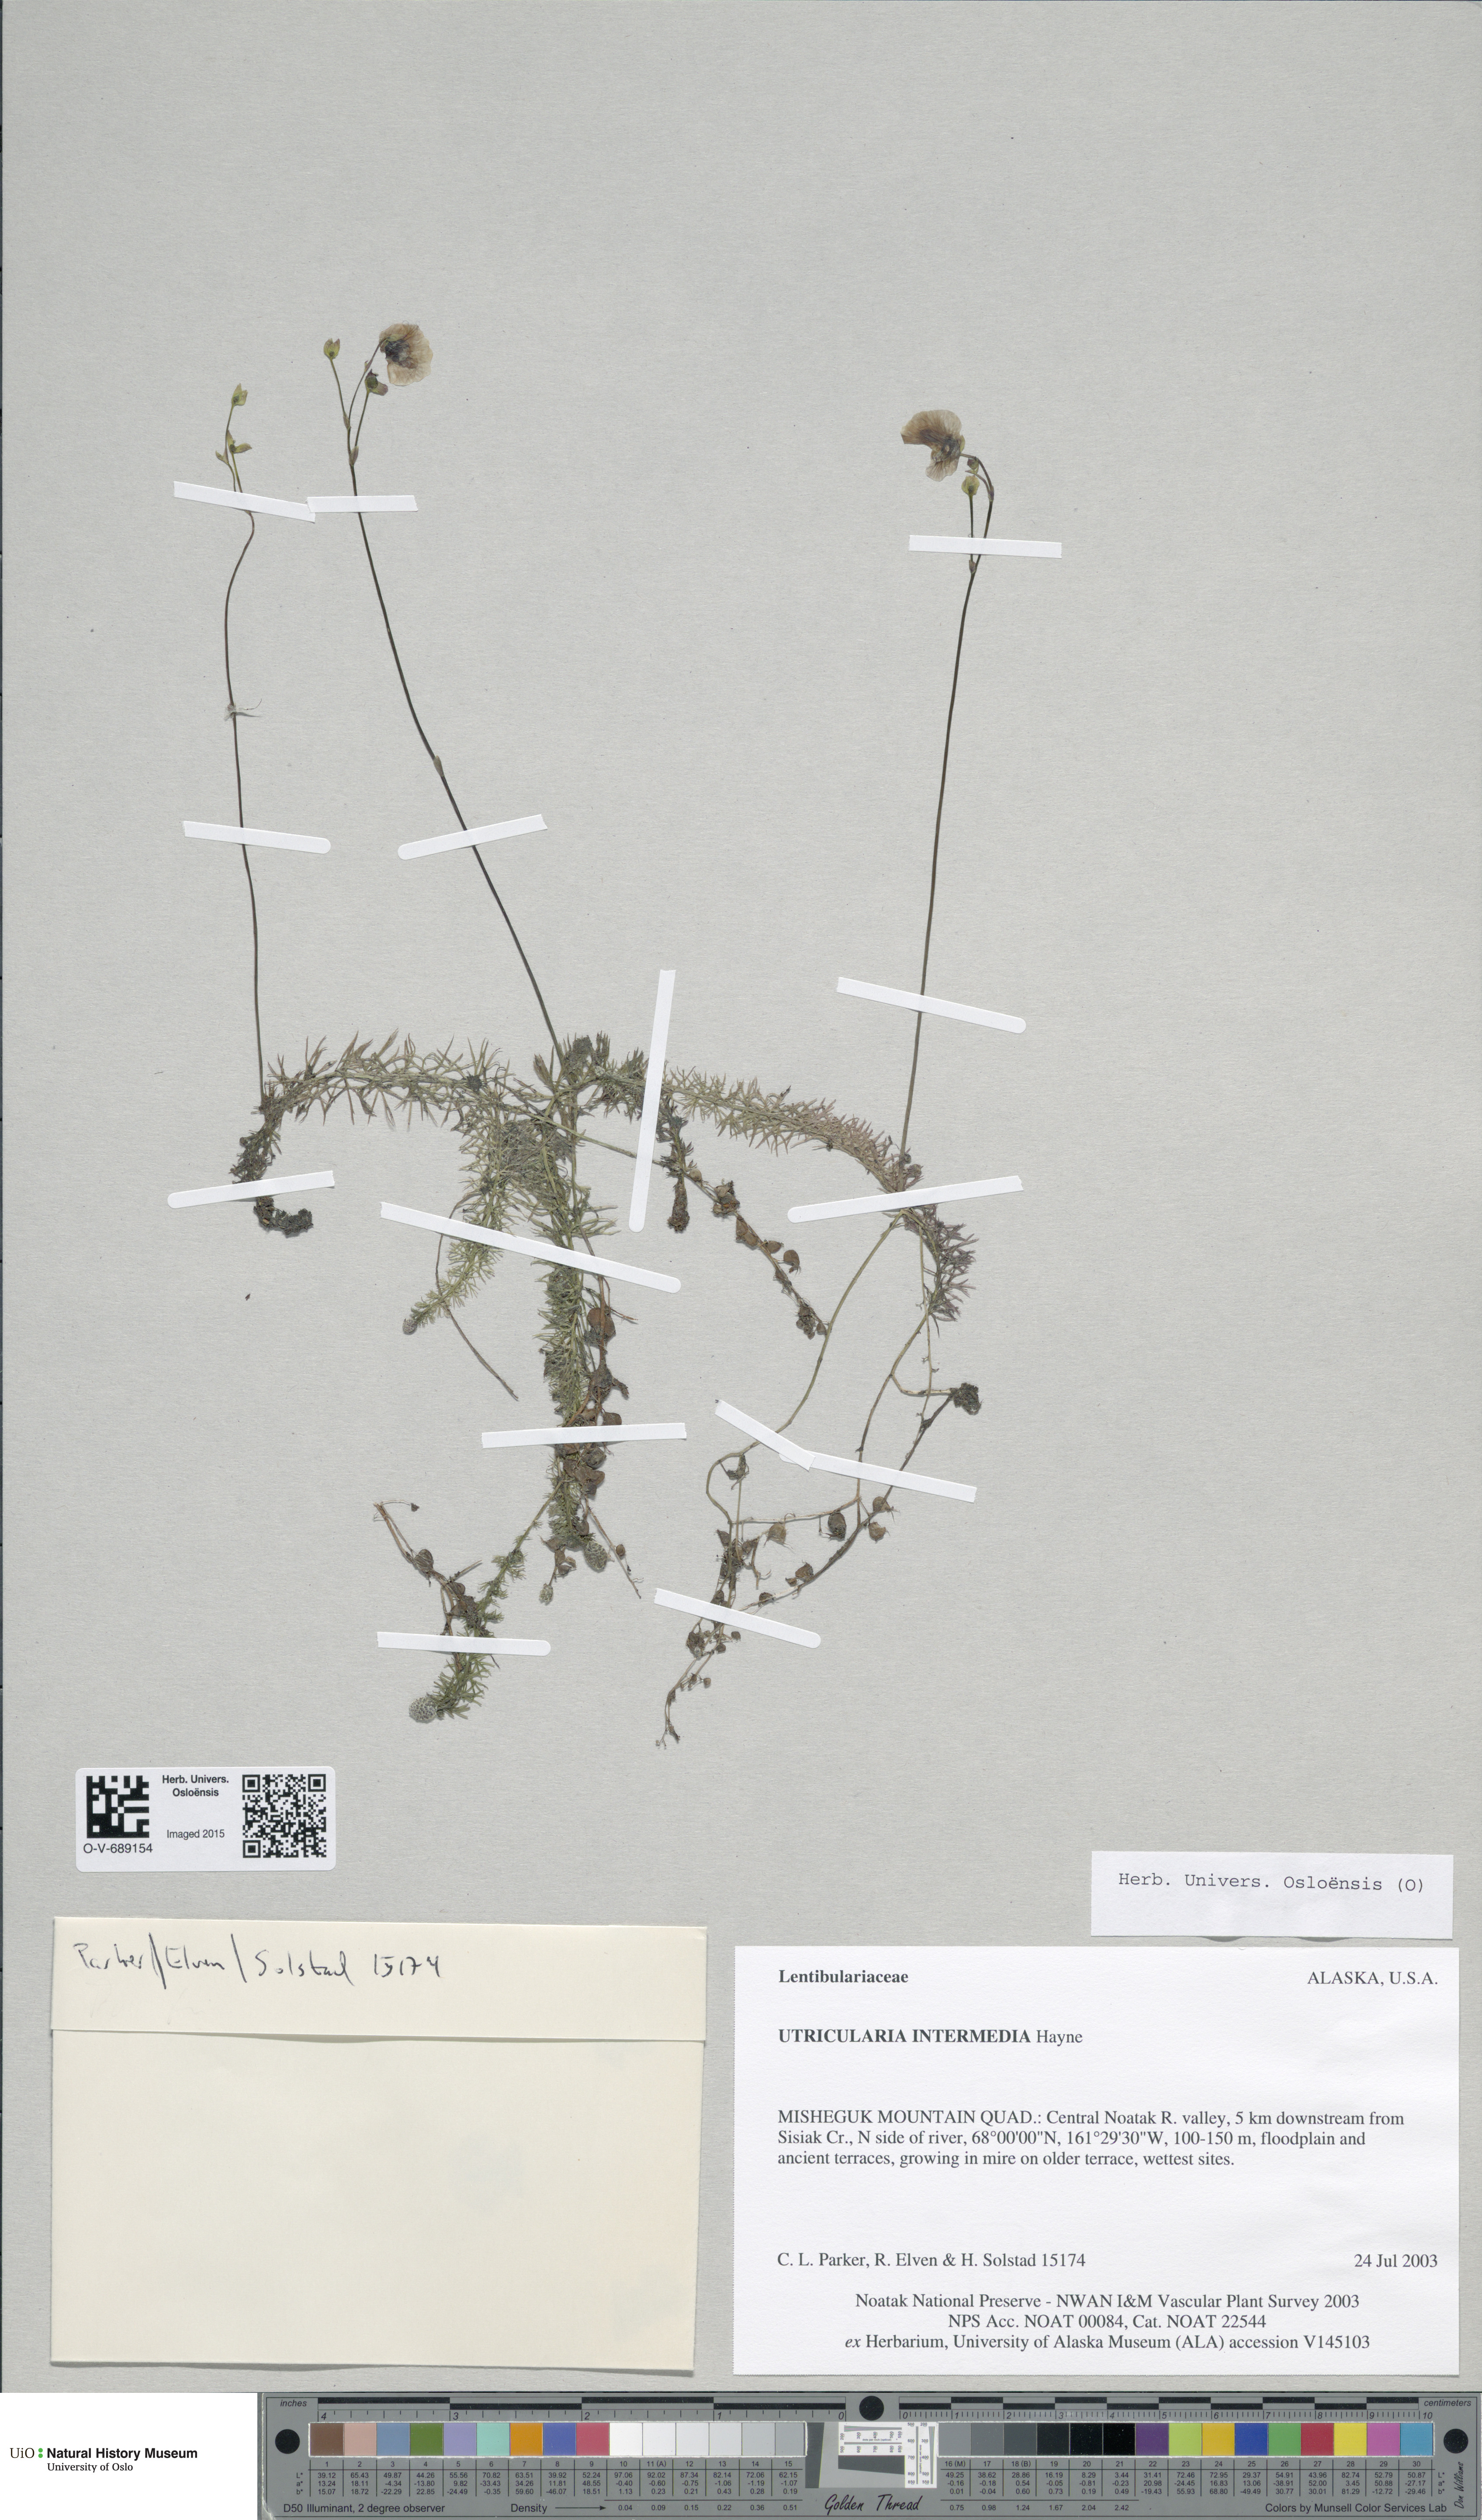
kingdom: Plantae
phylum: Tracheophyta
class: Magnoliopsida
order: Lamiales
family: Lentibulariaceae
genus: Utricularia
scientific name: Utricularia intermedia
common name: Intermediate bladderwort
